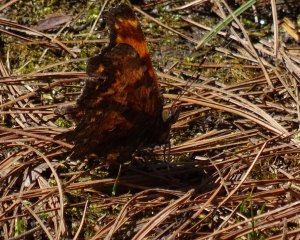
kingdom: Animalia
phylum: Arthropoda
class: Insecta
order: Lepidoptera
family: Nymphalidae
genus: Polygonia
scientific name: Polygonia progne
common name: Gray Comma
